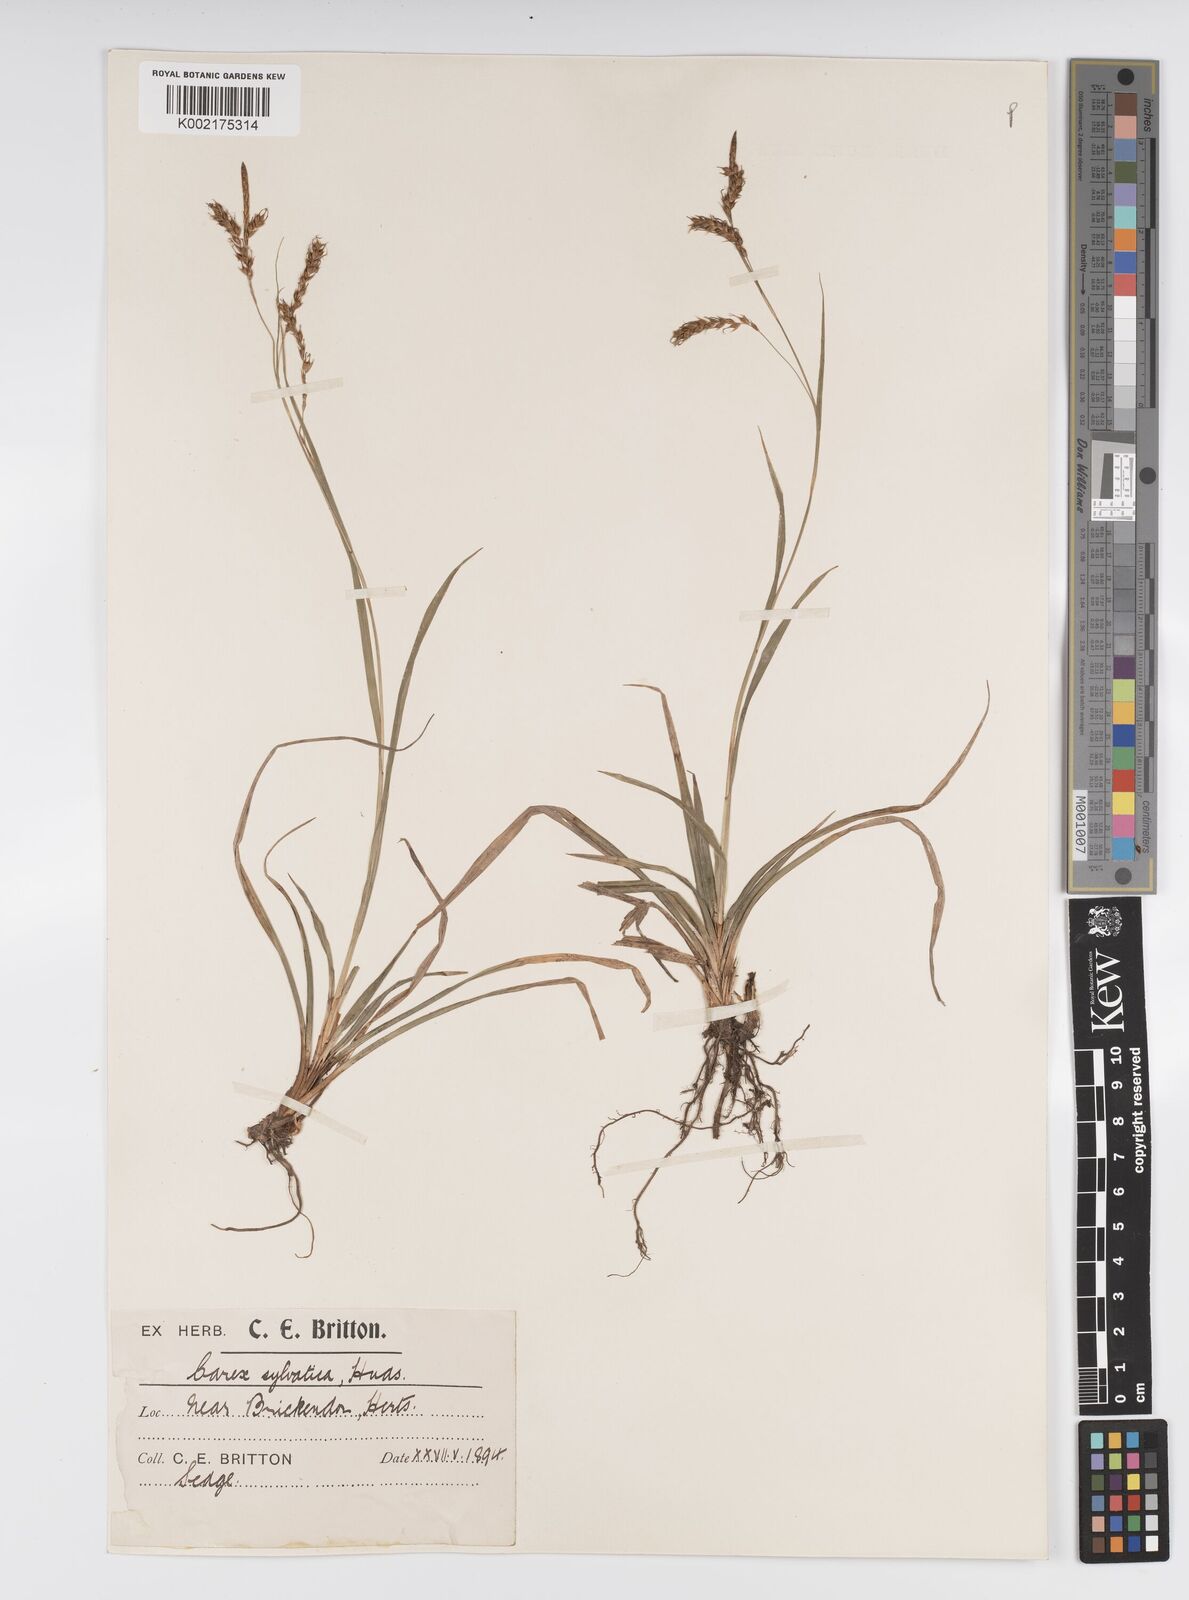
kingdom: Plantae
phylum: Tracheophyta
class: Liliopsida
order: Poales
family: Cyperaceae
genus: Carex
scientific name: Carex sylvatica
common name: Wood-sedge
